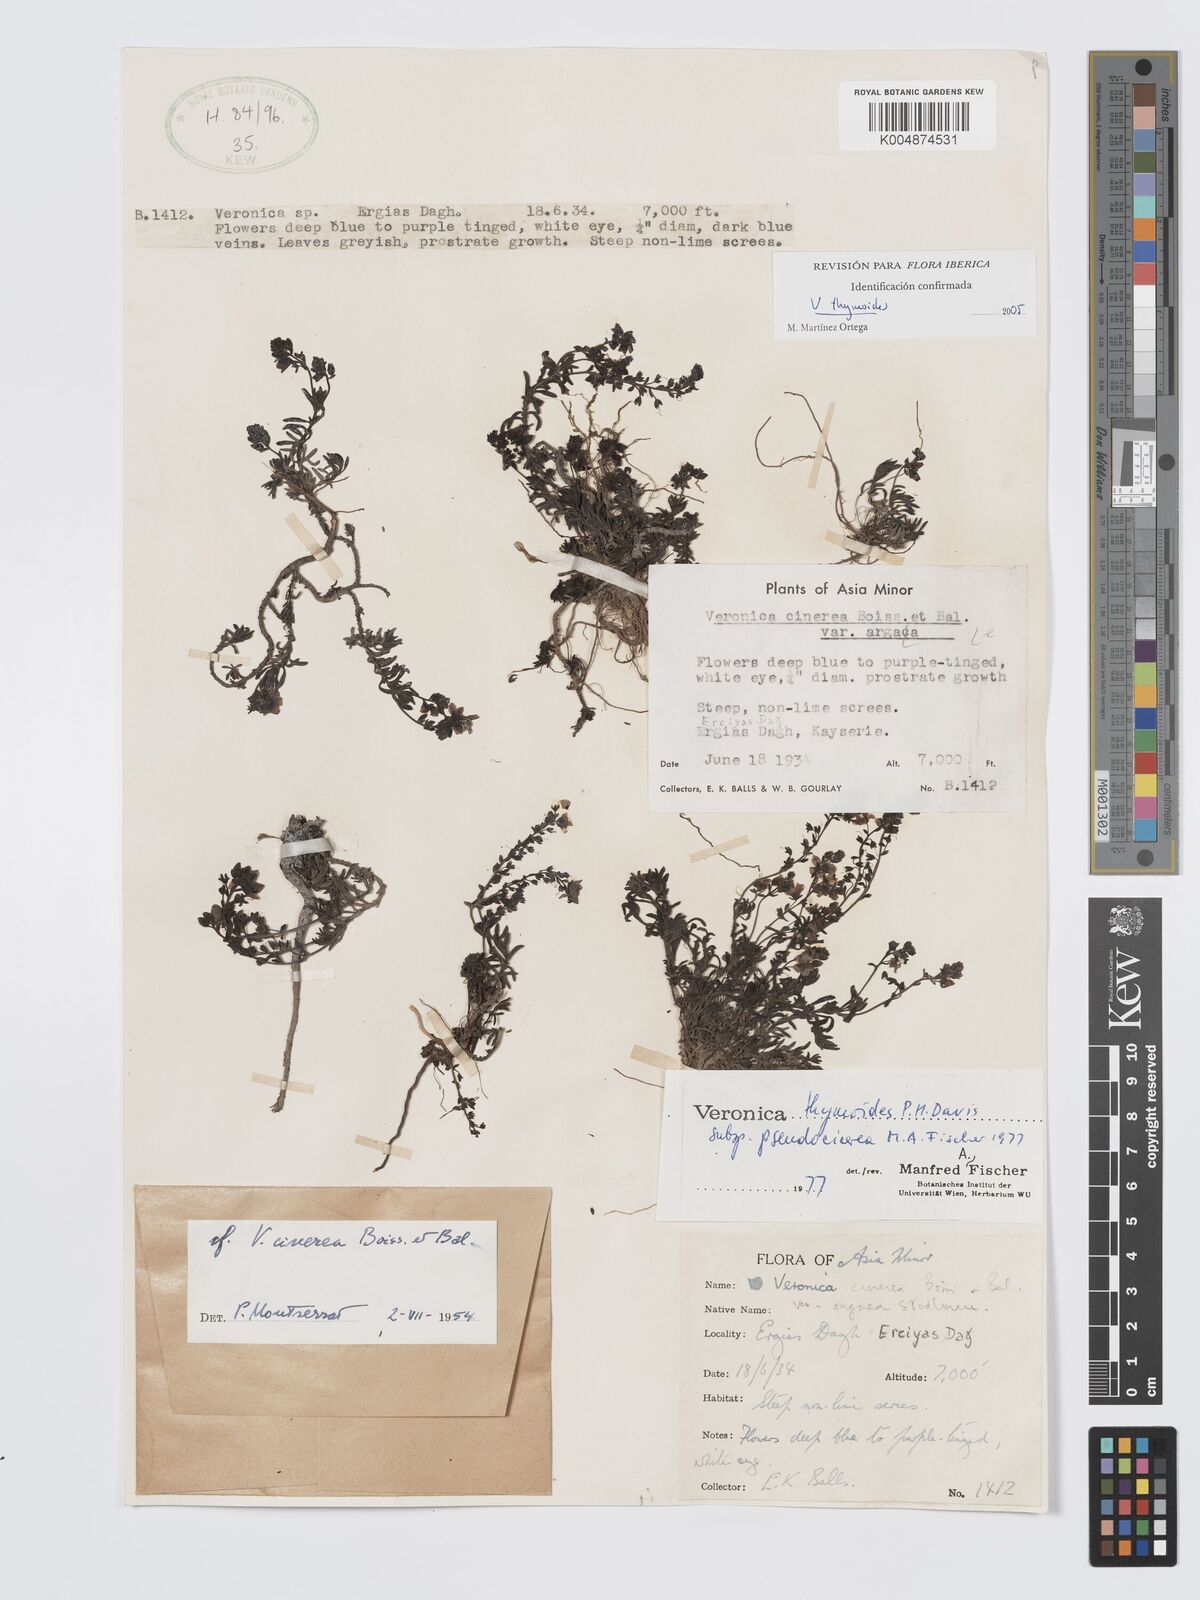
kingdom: Plantae
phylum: Tracheophyta
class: Magnoliopsida
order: Lamiales
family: Plantaginaceae
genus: Veronica
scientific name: Veronica thymoides
